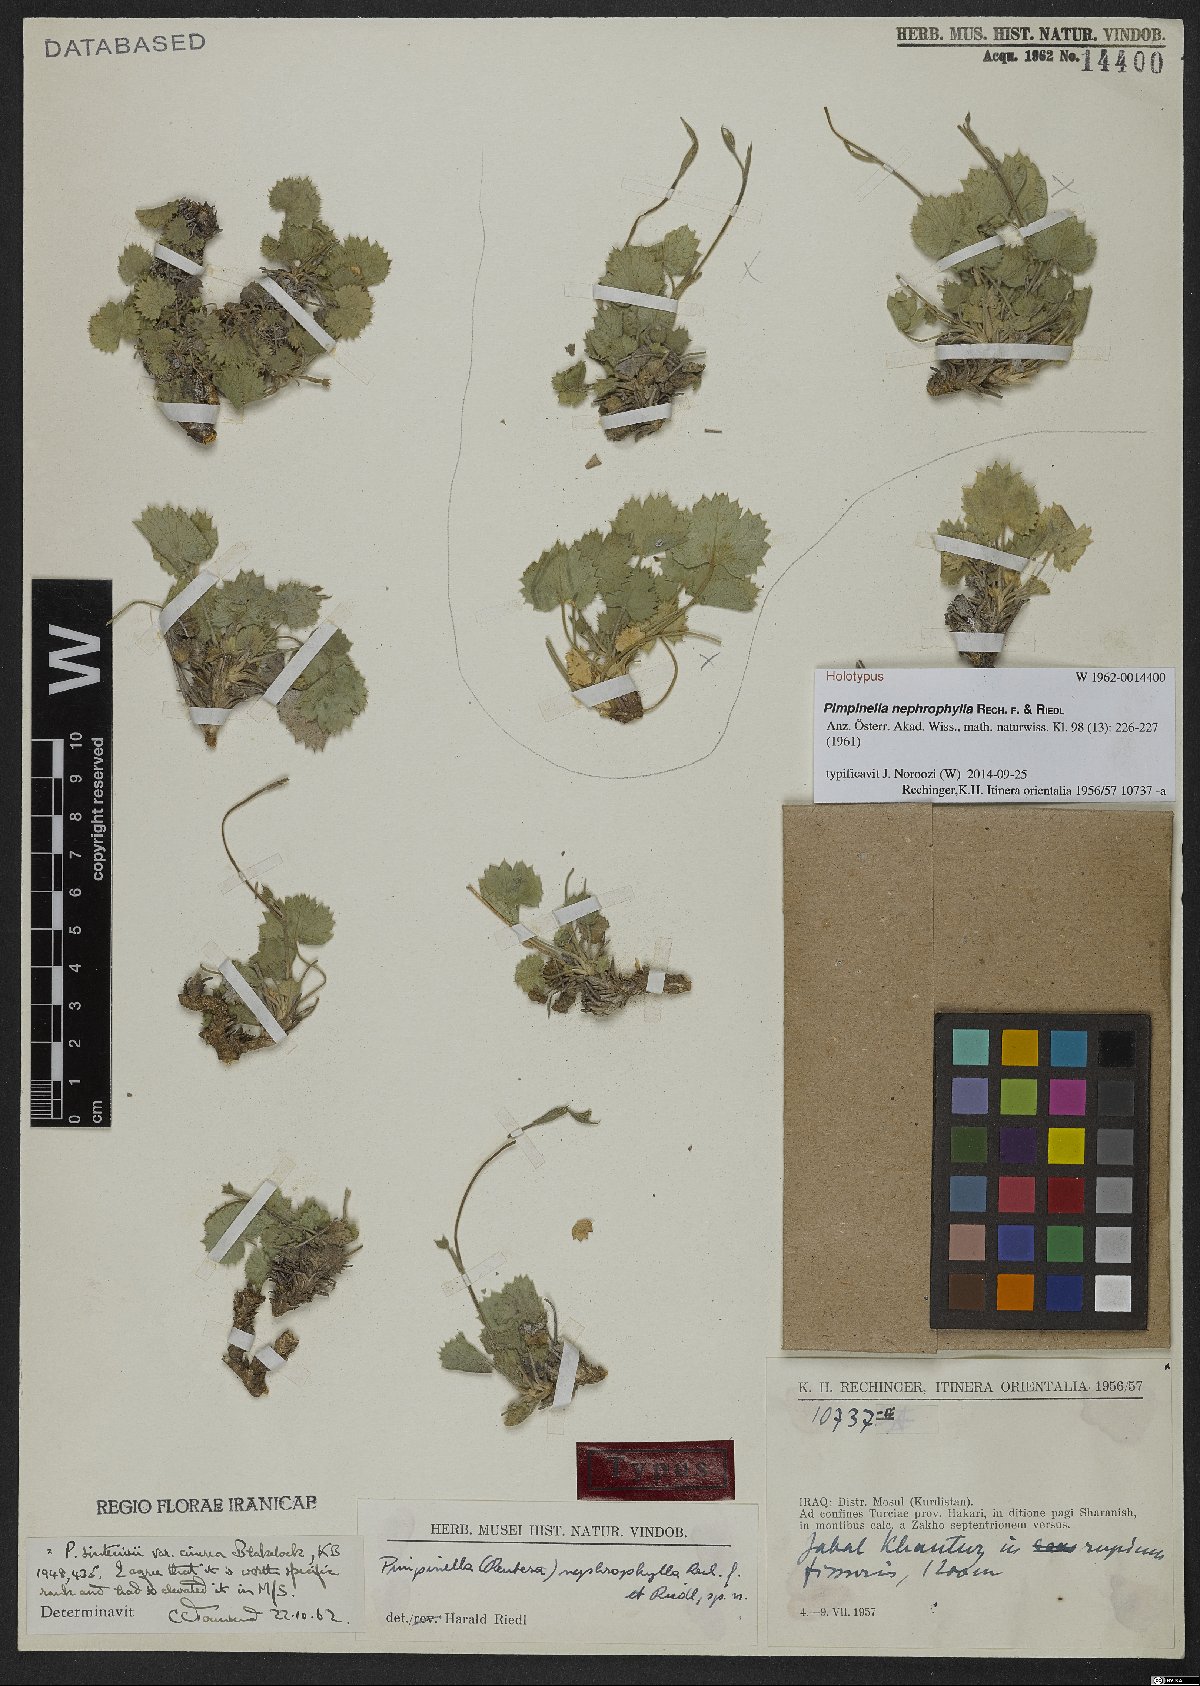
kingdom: Plantae
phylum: Tracheophyta
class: Magnoliopsida
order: Apiales
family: Apiaceae
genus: Pimpinella
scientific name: Pimpinella nephrophylla
